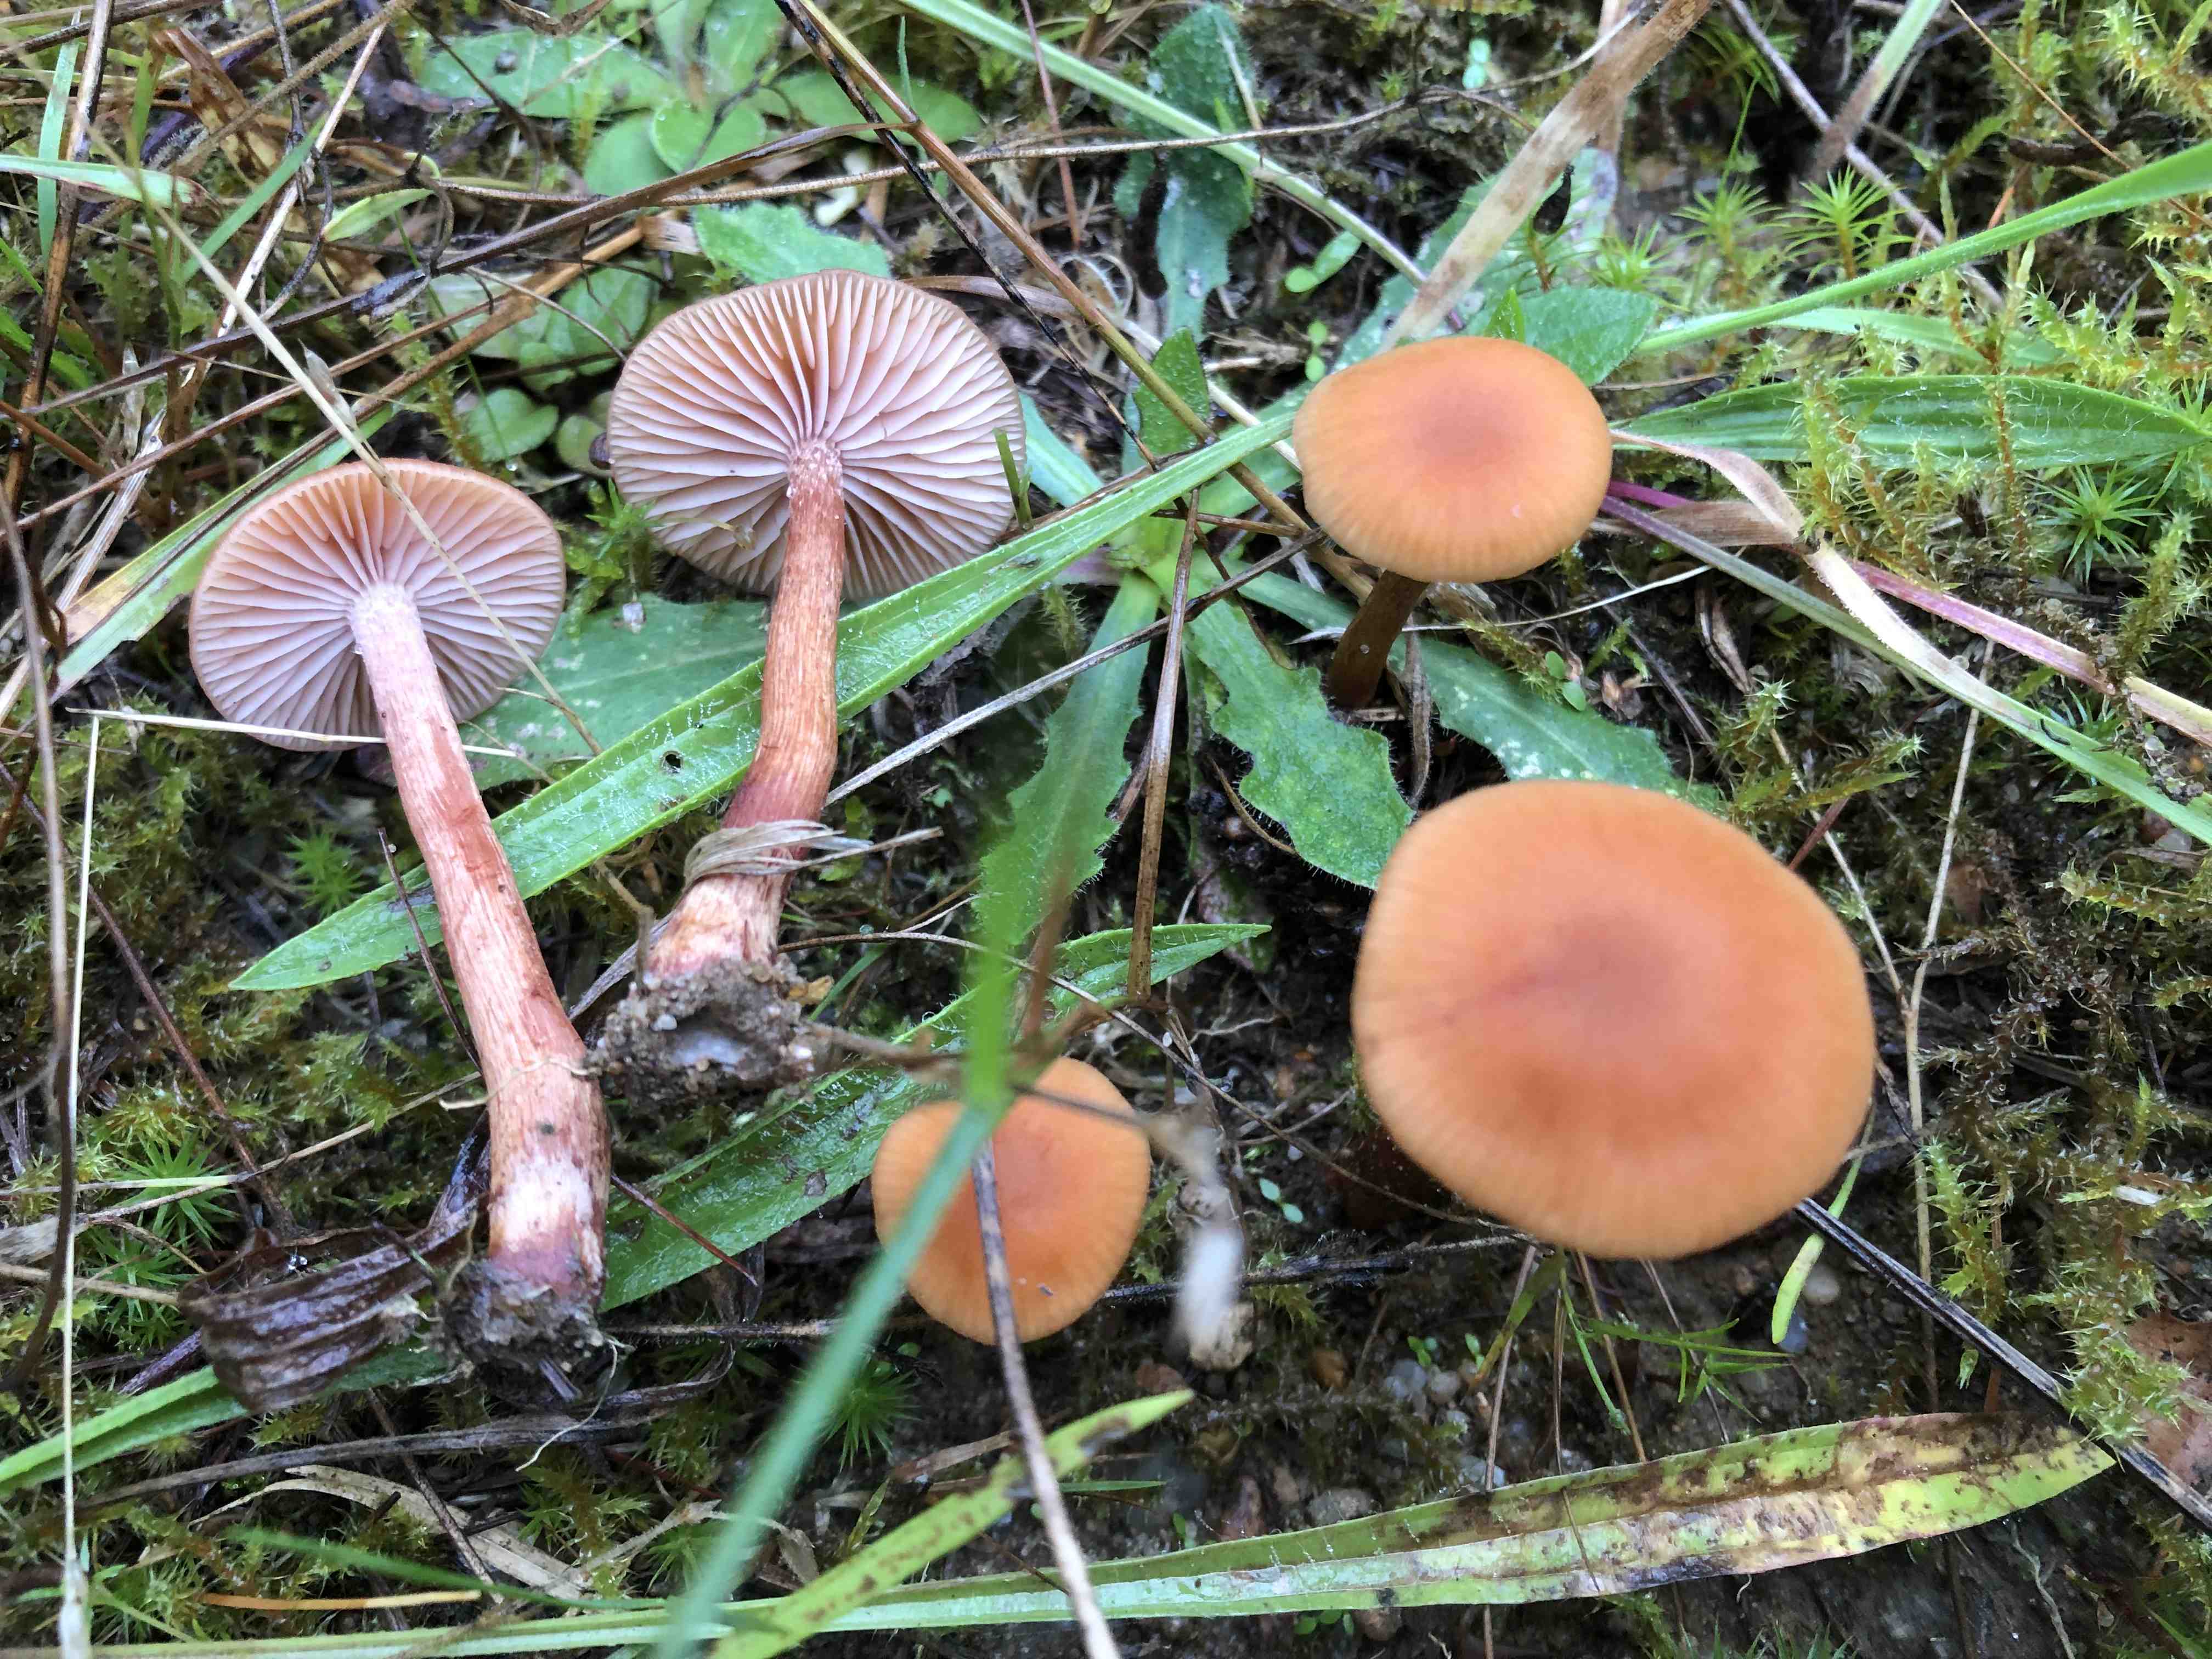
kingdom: Fungi
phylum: Basidiomycota
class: Agaricomycetes
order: Agaricales
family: Hydnangiaceae
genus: Laccaria
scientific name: Laccaria bicolor
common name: tvefarvet ametysthat
